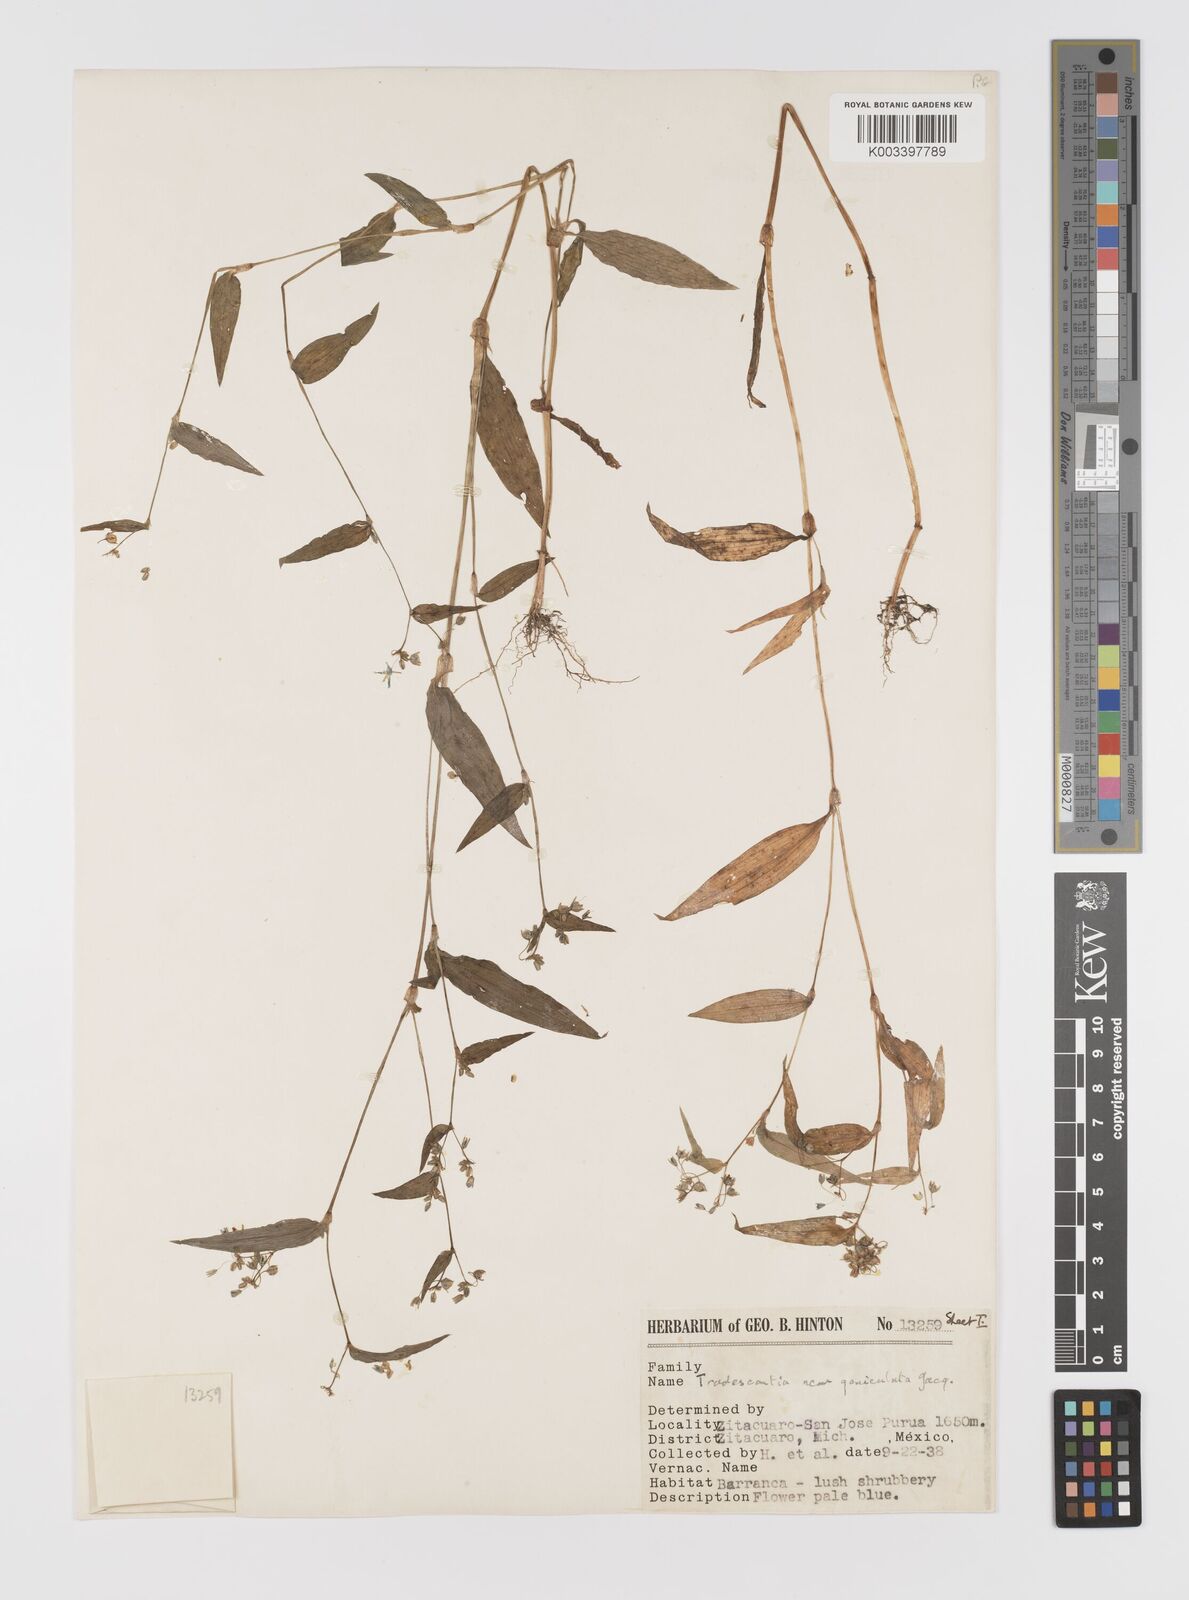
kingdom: Plantae
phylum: Tracheophyta
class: Liliopsida
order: Commelinales
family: Commelinaceae
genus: Gibasis
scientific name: Gibasis triflora
